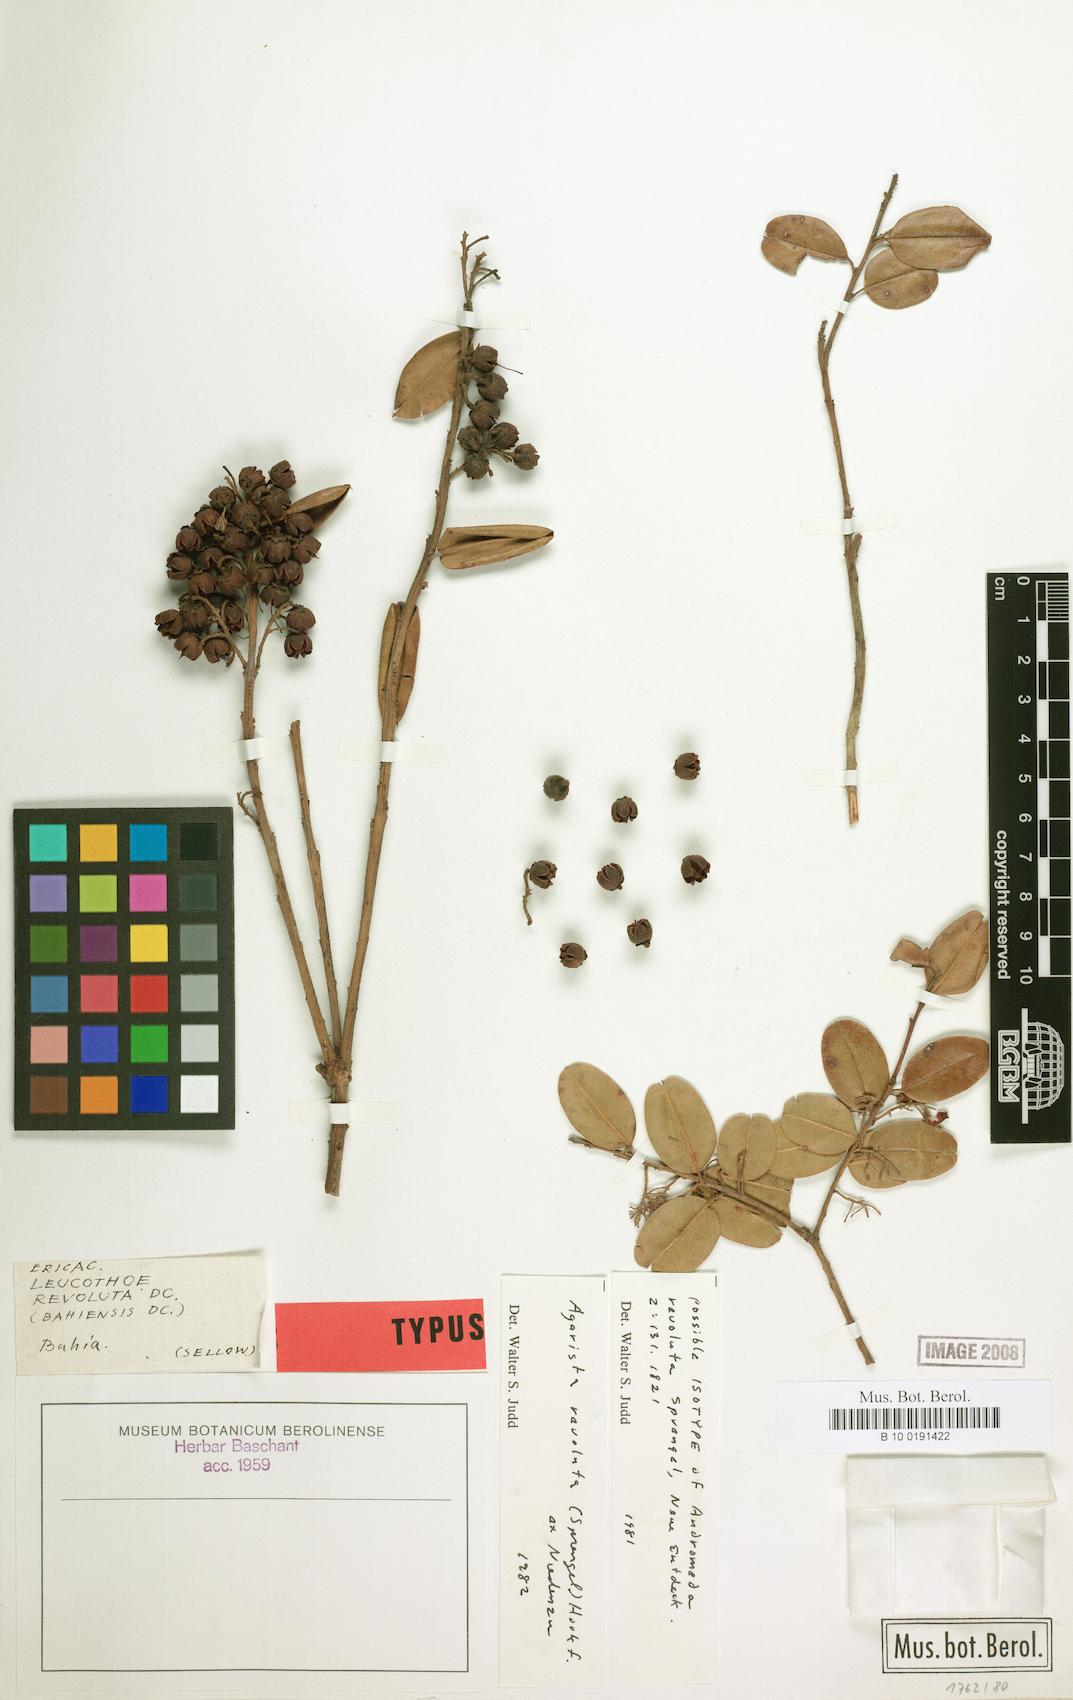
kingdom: Plantae
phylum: Tracheophyta
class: Magnoliopsida
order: Ericales
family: Ericaceae
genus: Agarista
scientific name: Agarista revoluta
